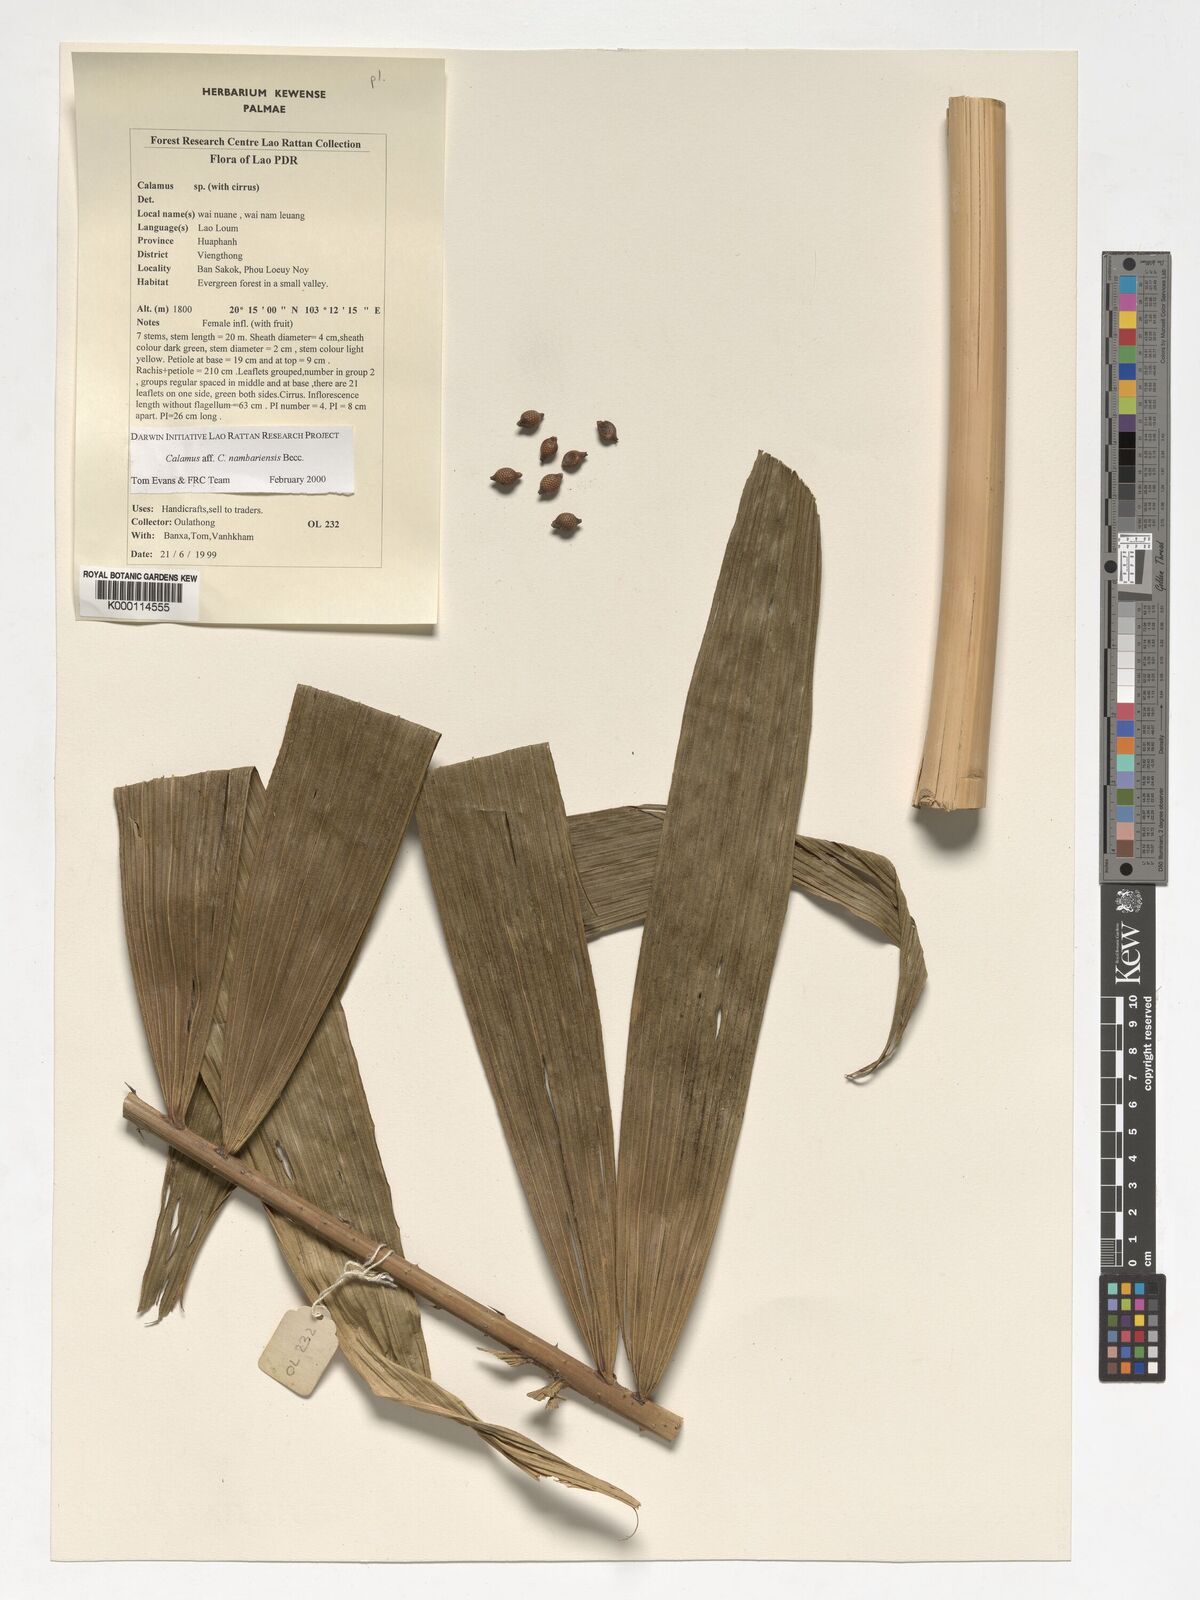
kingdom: Plantae
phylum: Tracheophyta
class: Liliopsida
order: Arecales
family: Arecaceae
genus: Calamus
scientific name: Calamus inermis
